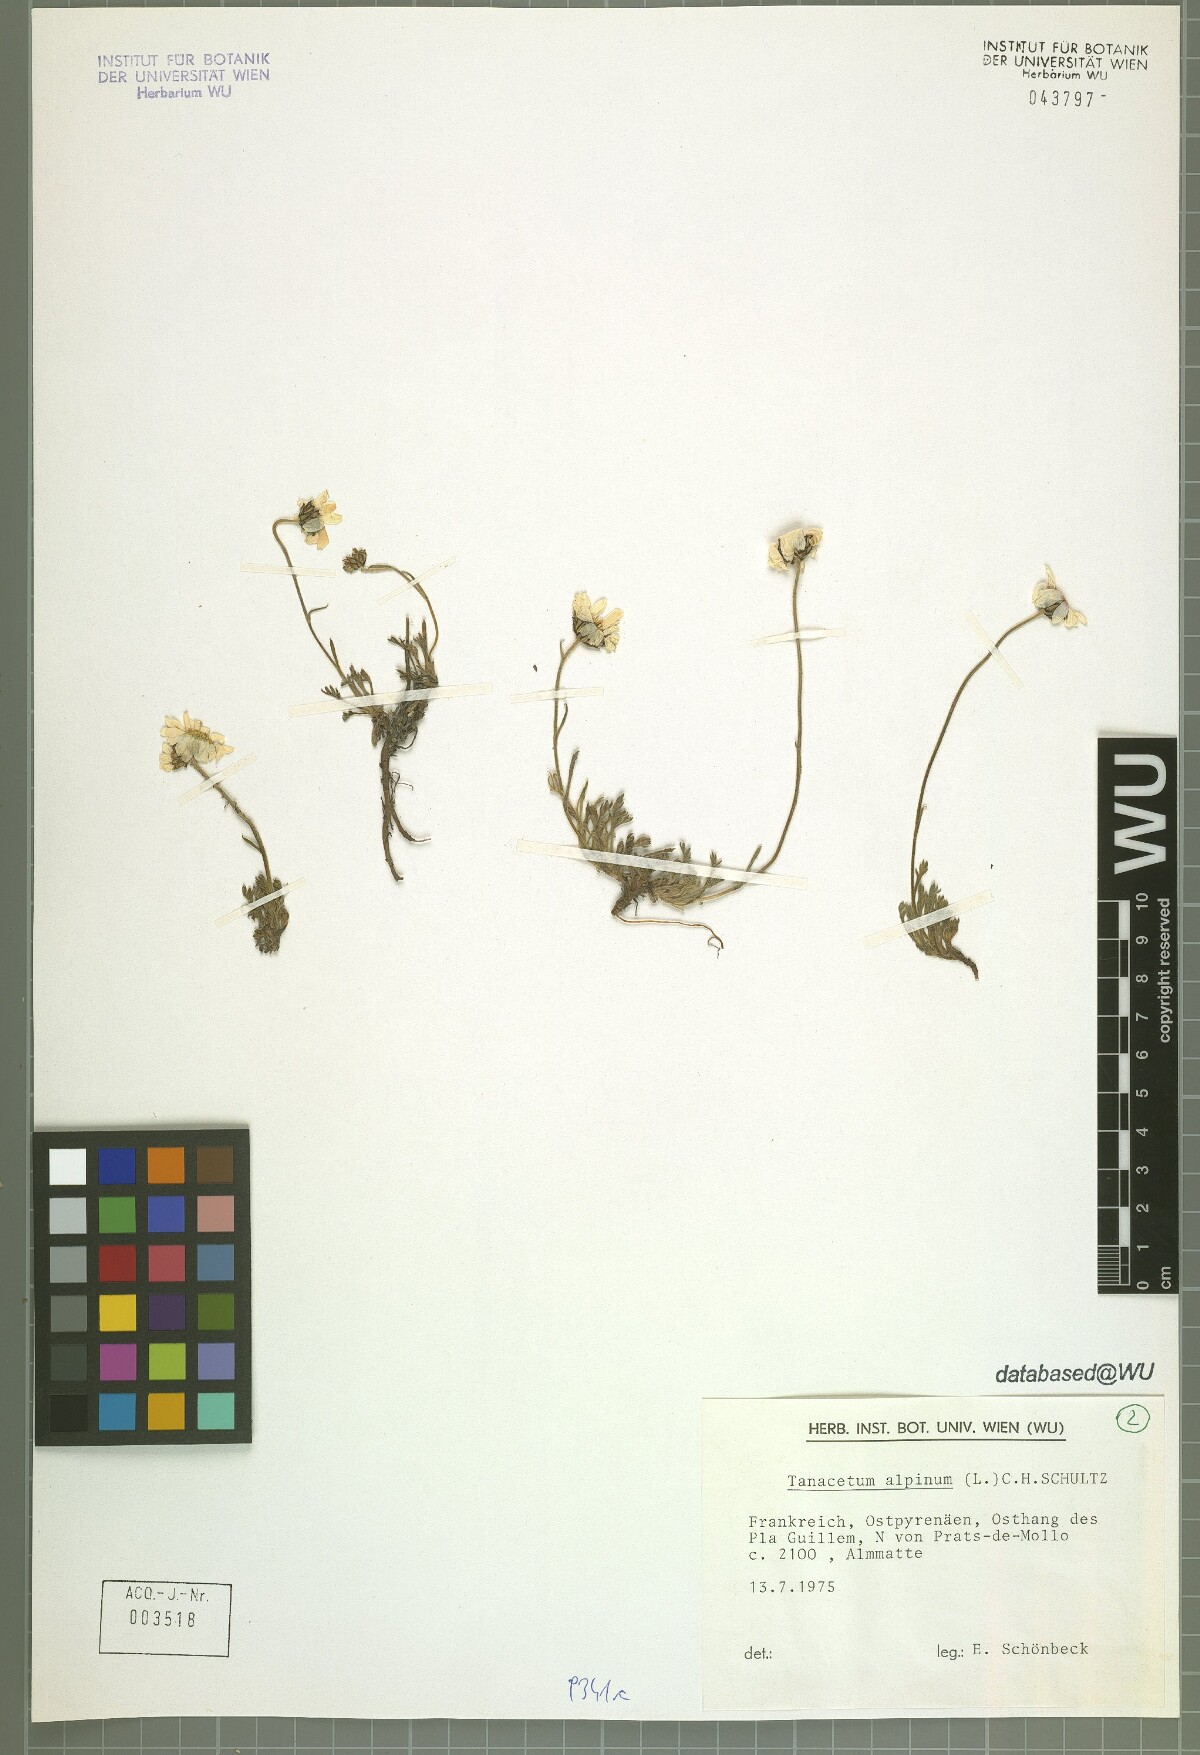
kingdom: Plantae
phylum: Tracheophyta
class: Magnoliopsida
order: Asterales
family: Asteraceae
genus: Leucanthemopsis
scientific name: Leucanthemopsis alpina
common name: Alpine moon daisy
